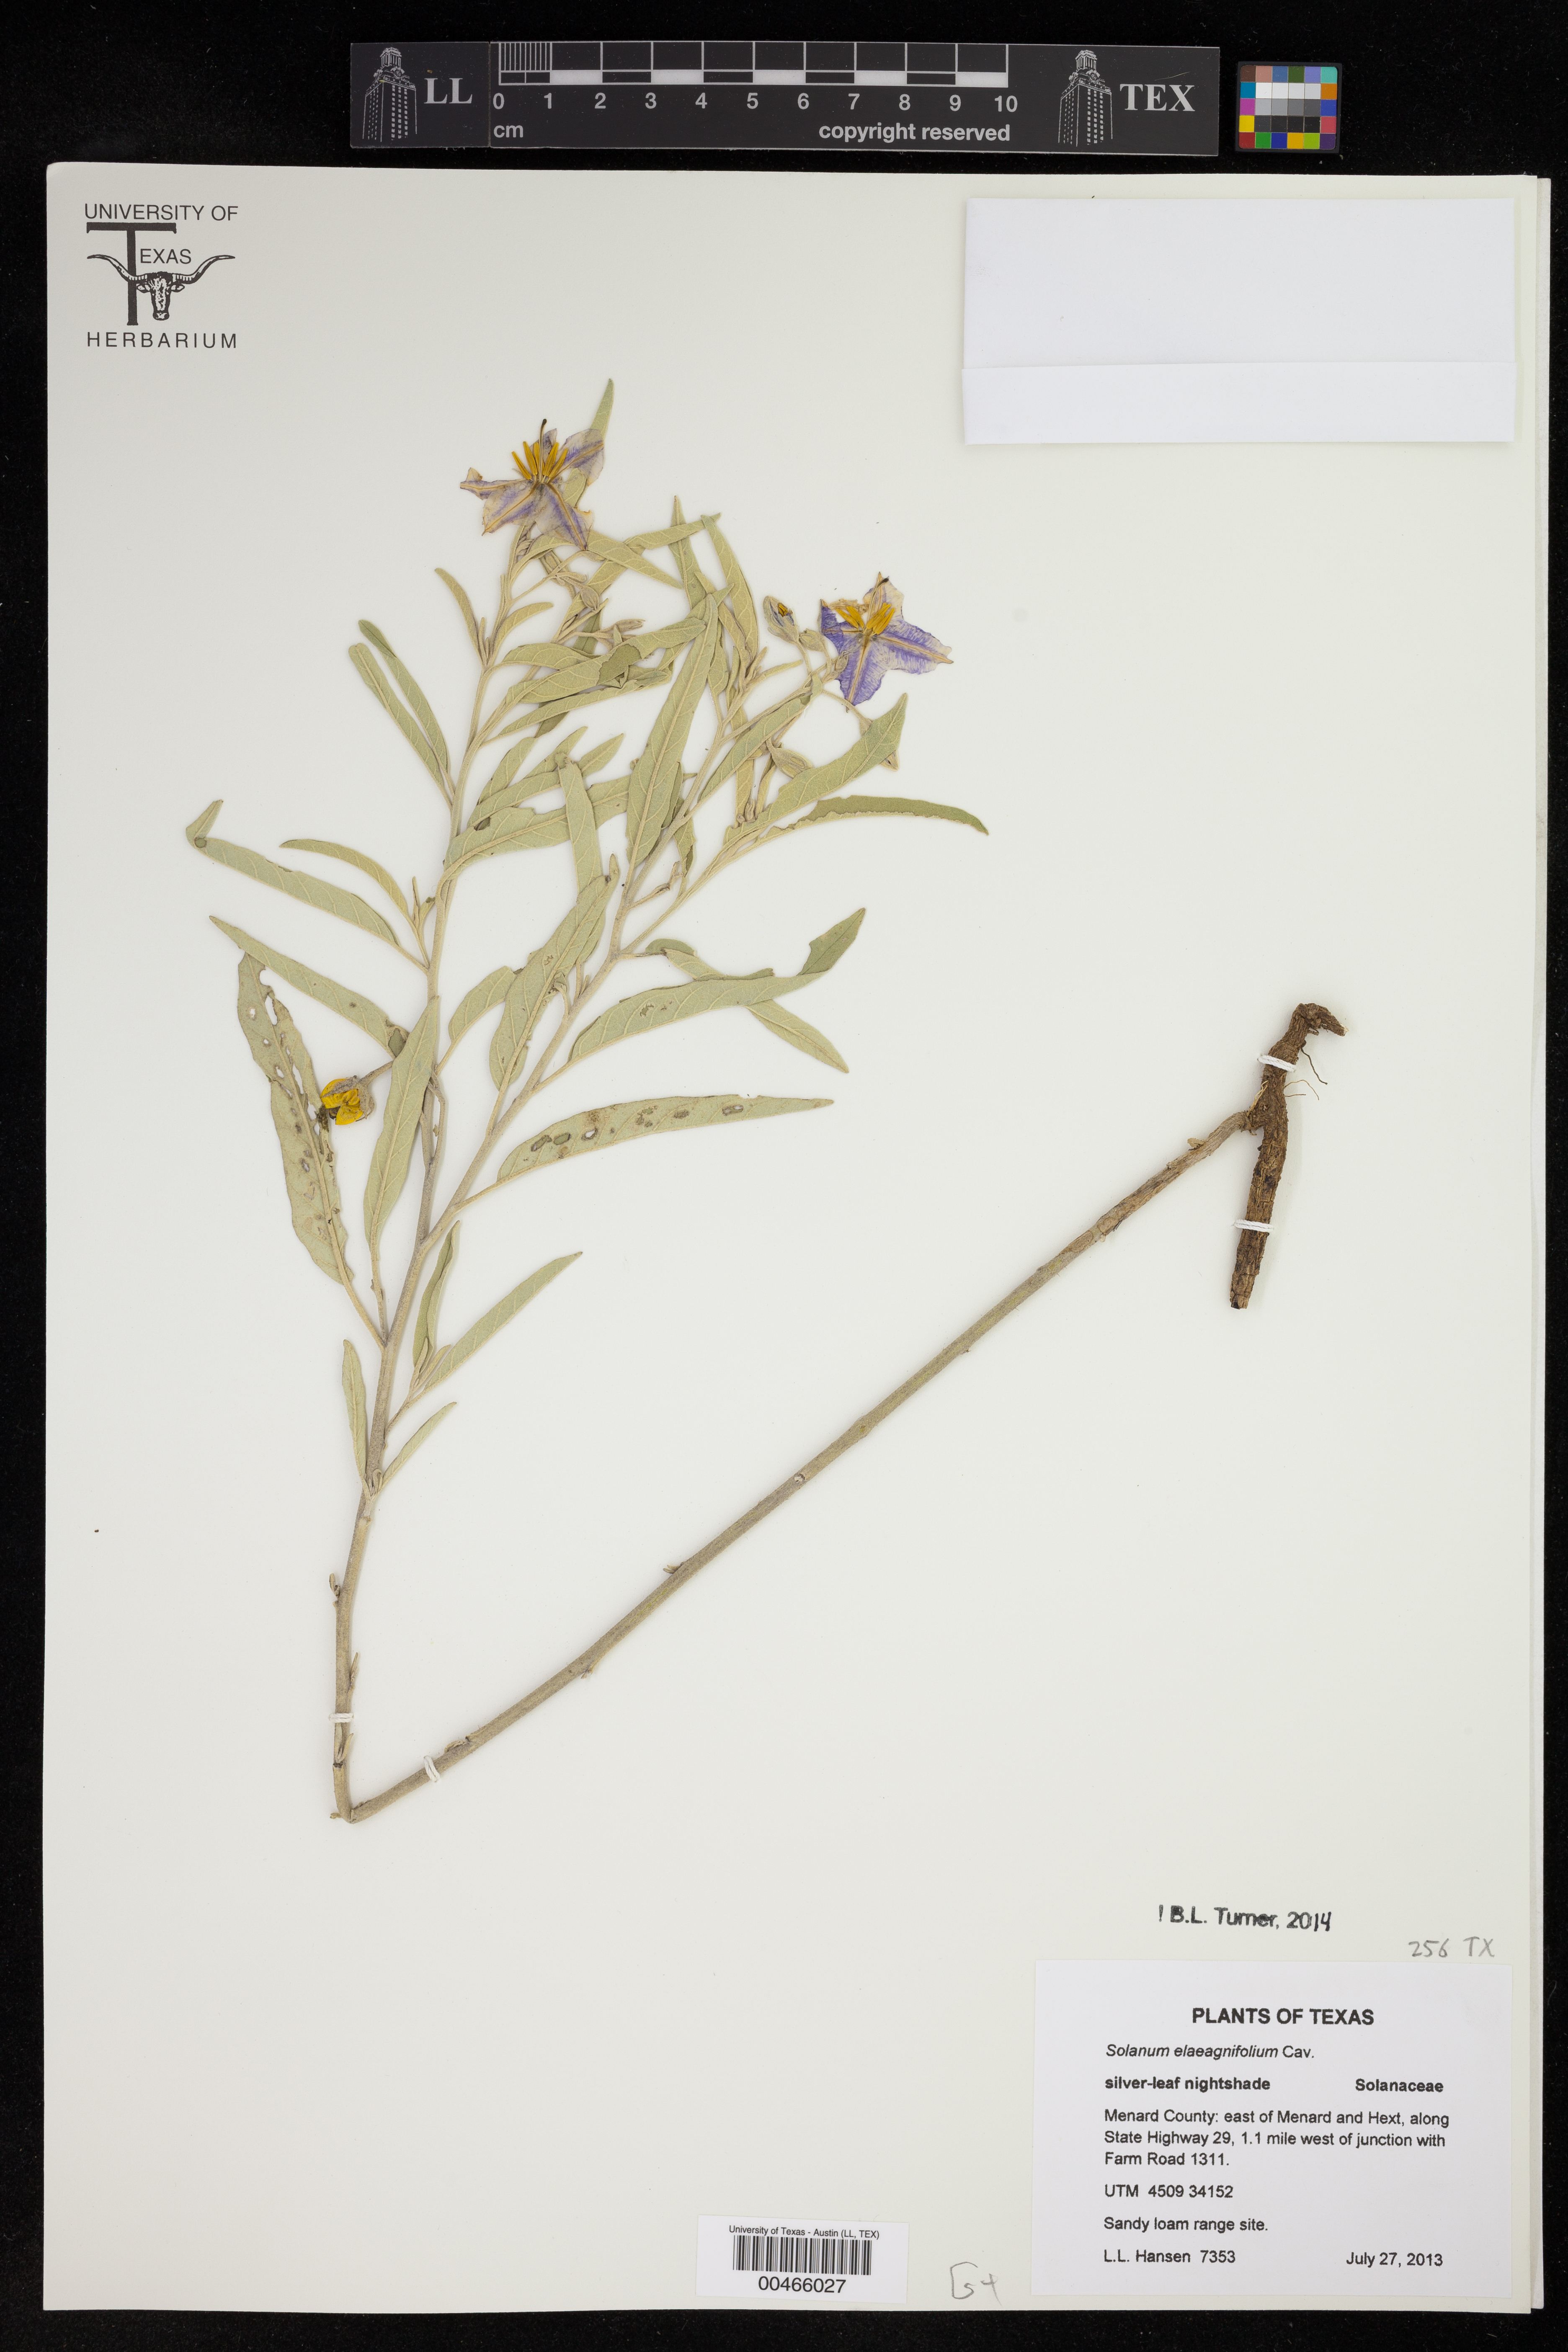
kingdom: Plantae
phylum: Tracheophyta
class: Magnoliopsida
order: Solanales
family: Solanaceae
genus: Solanum
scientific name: Solanum elaeagnifolium
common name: Silverleaf nightshade
